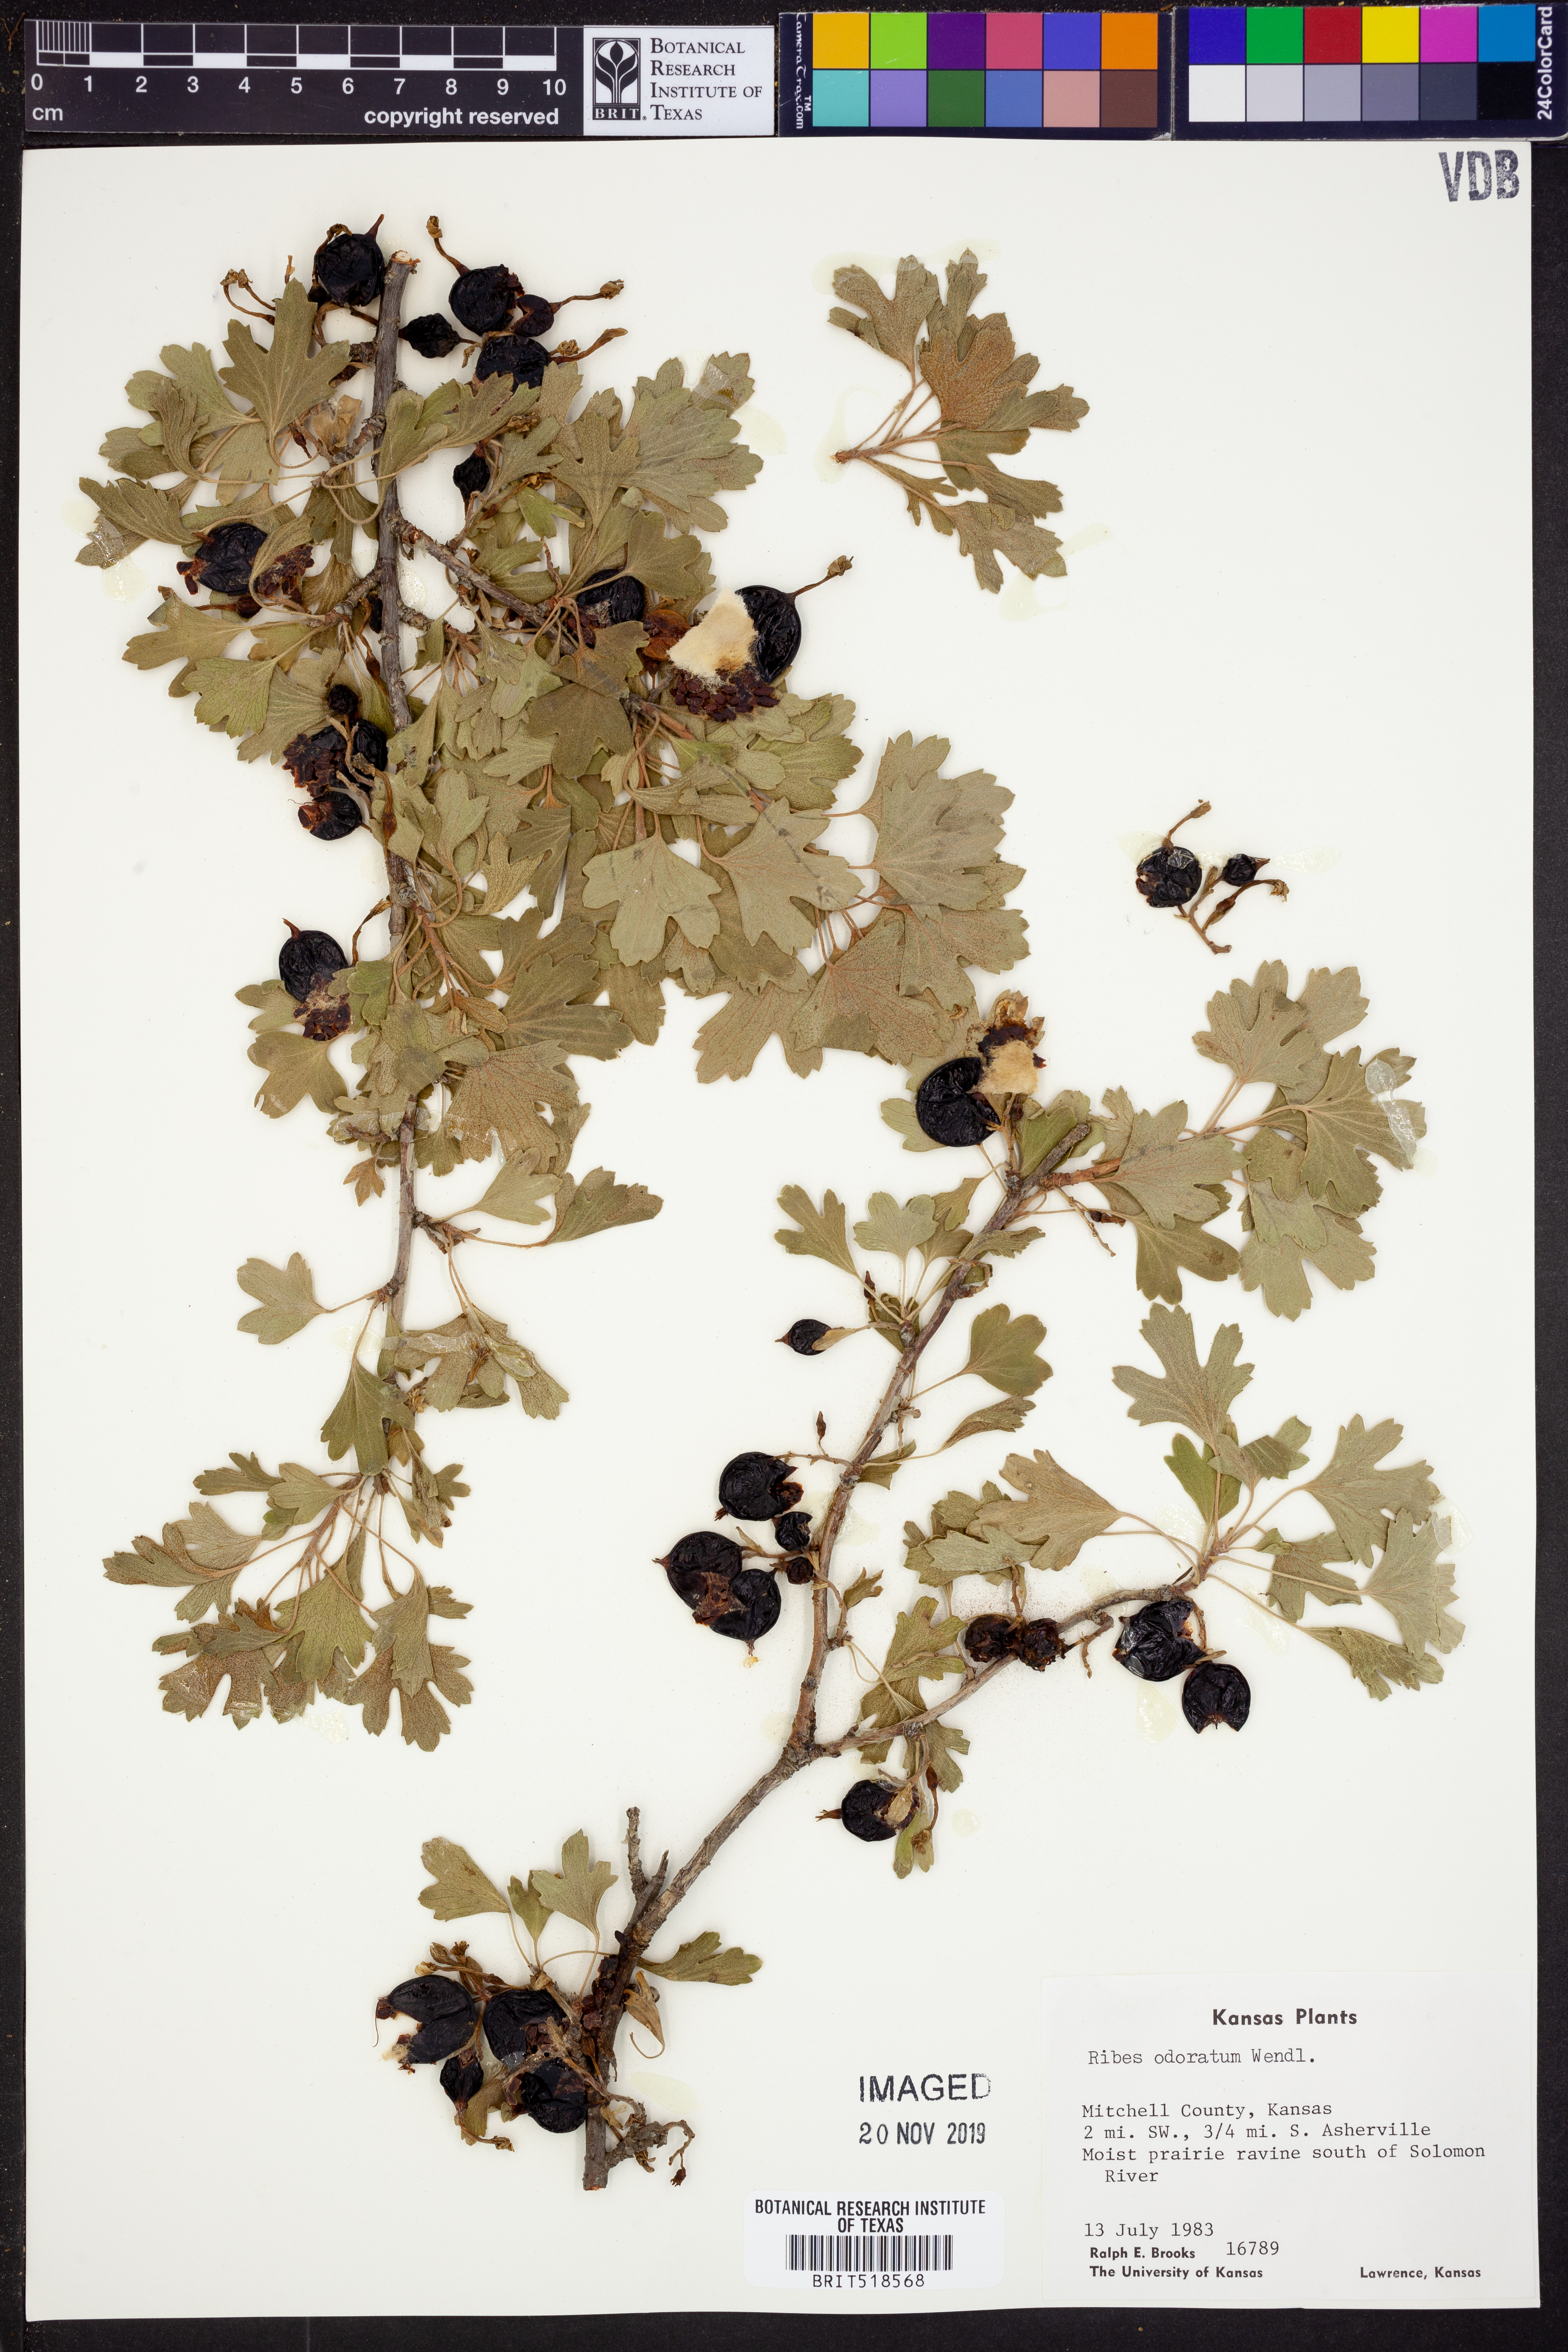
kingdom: Plantae
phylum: Tracheophyta
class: Magnoliopsida
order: Saxifragales
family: Grossulariaceae
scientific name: Grossulariaceae
